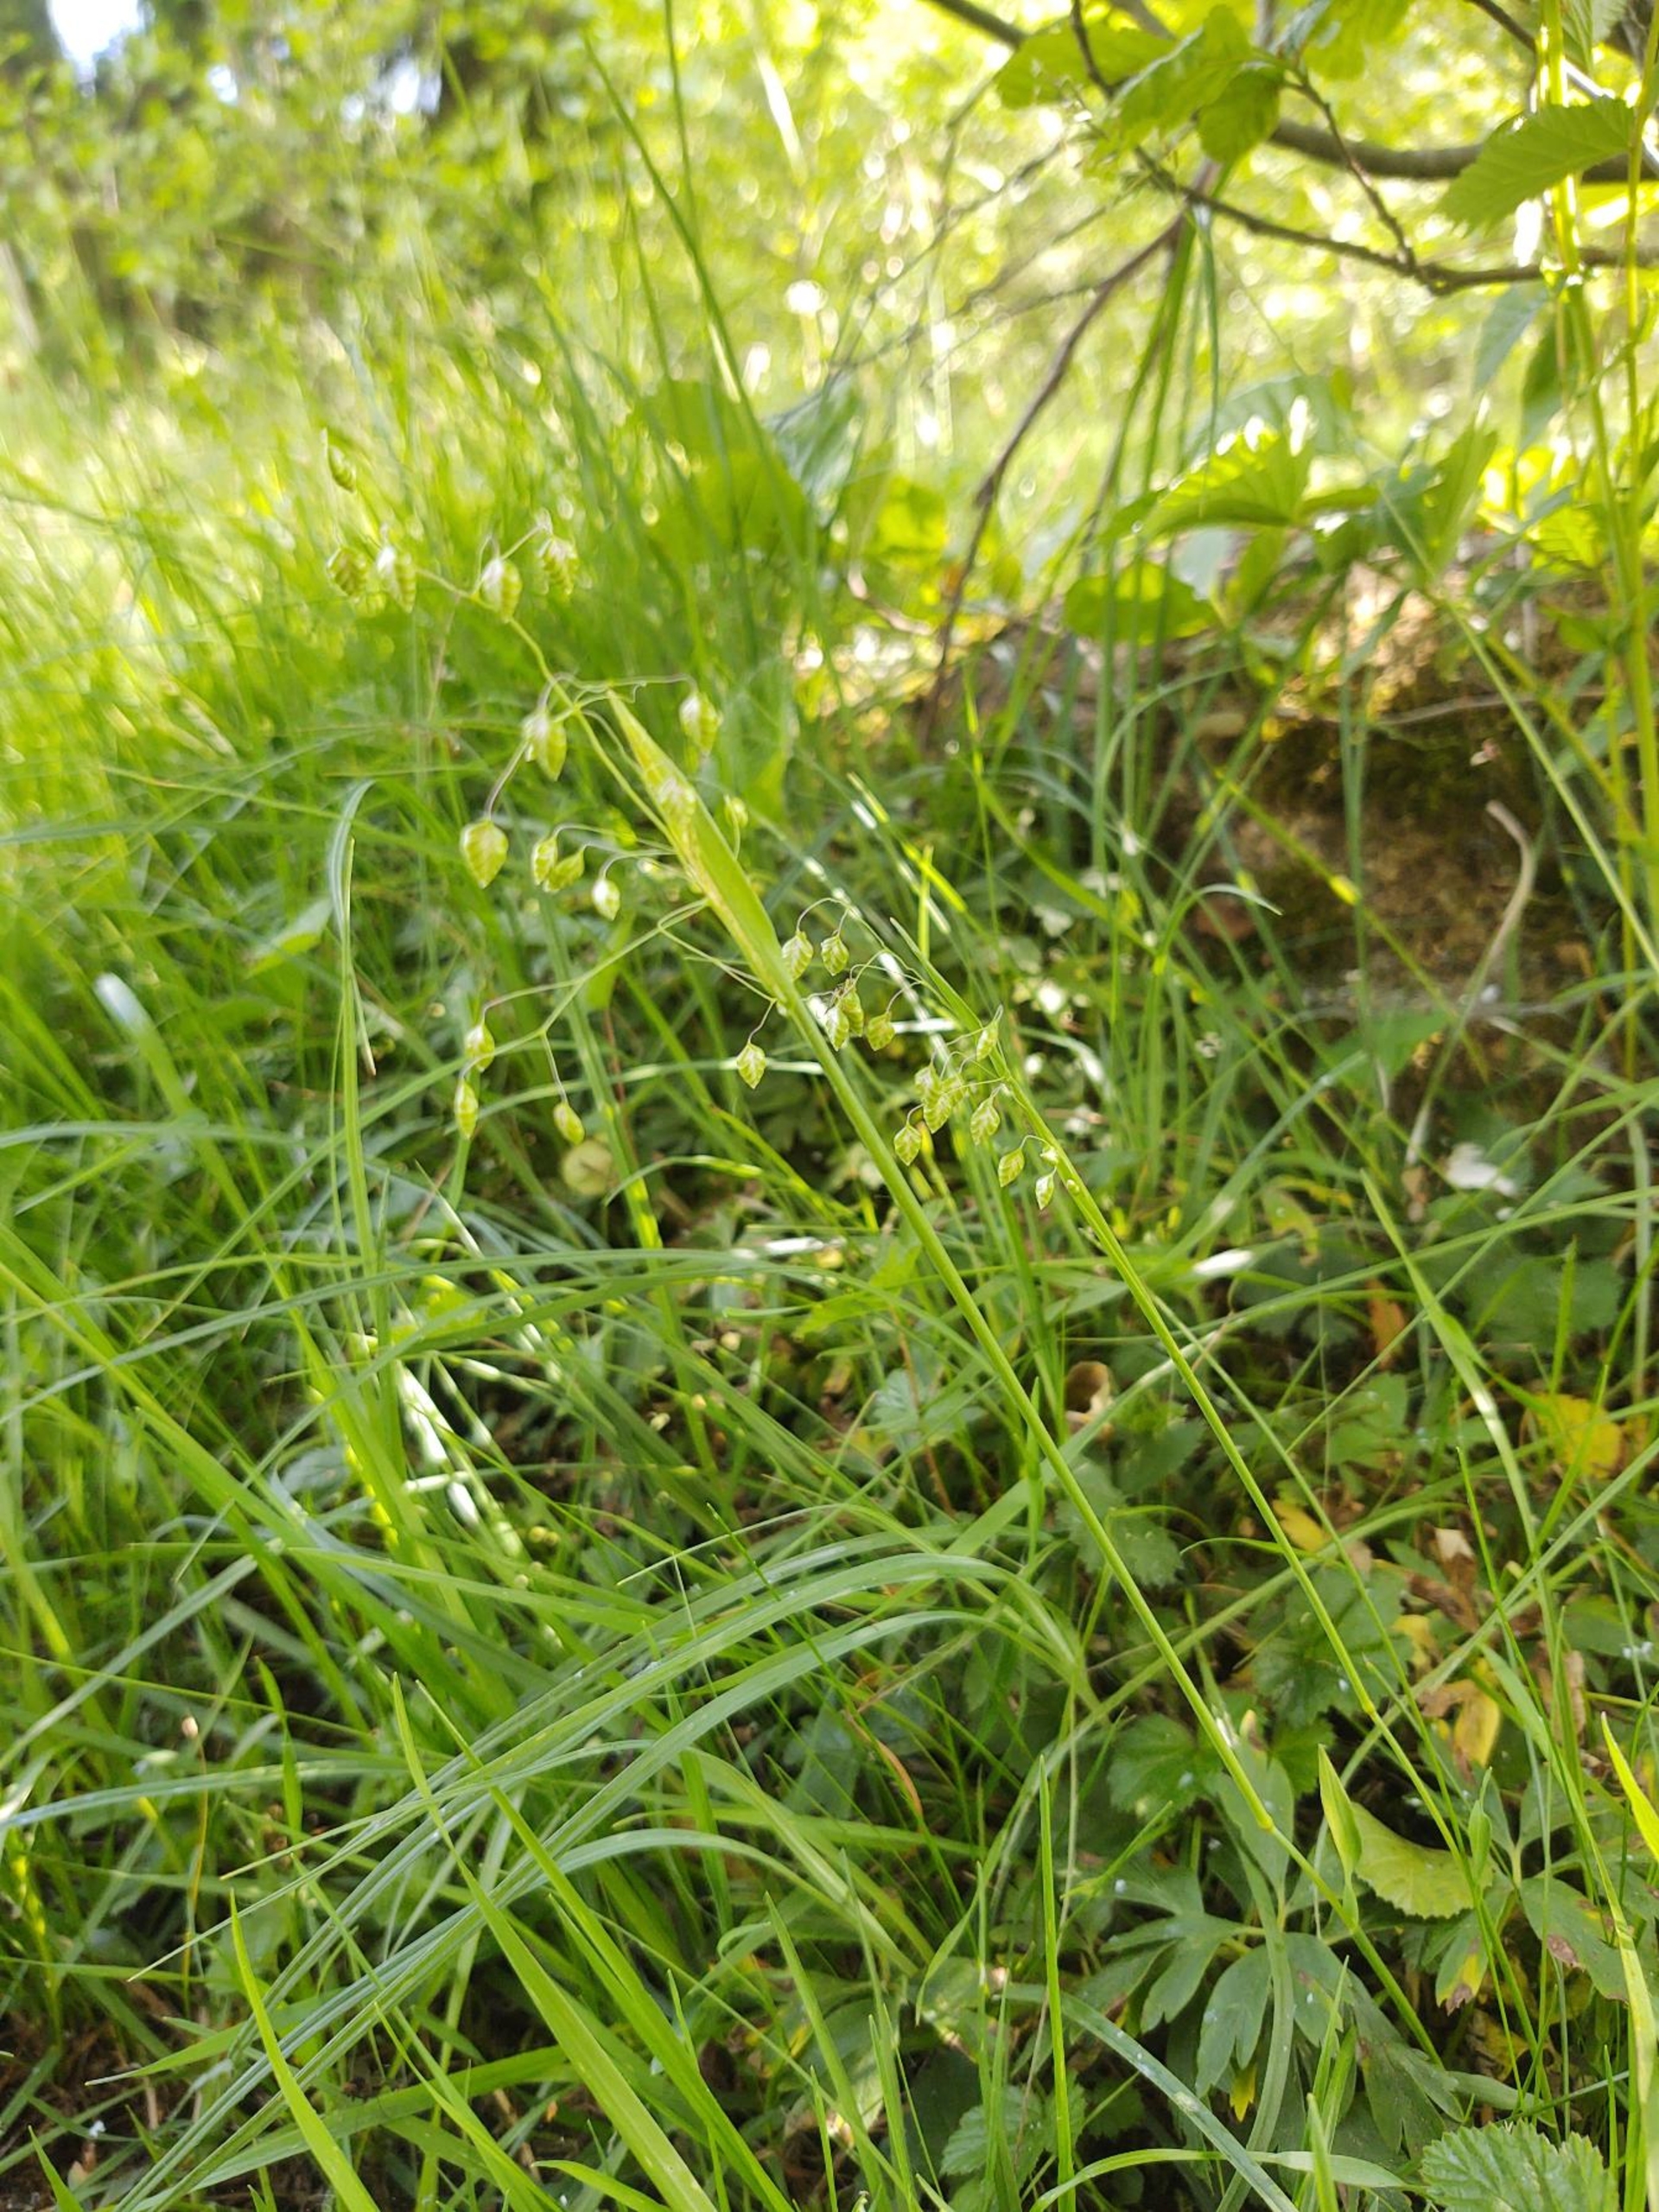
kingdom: Plantae
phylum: Tracheophyta
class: Liliopsida
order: Poales
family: Poaceae
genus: Briza
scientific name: Briza media
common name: Hjertegræs
